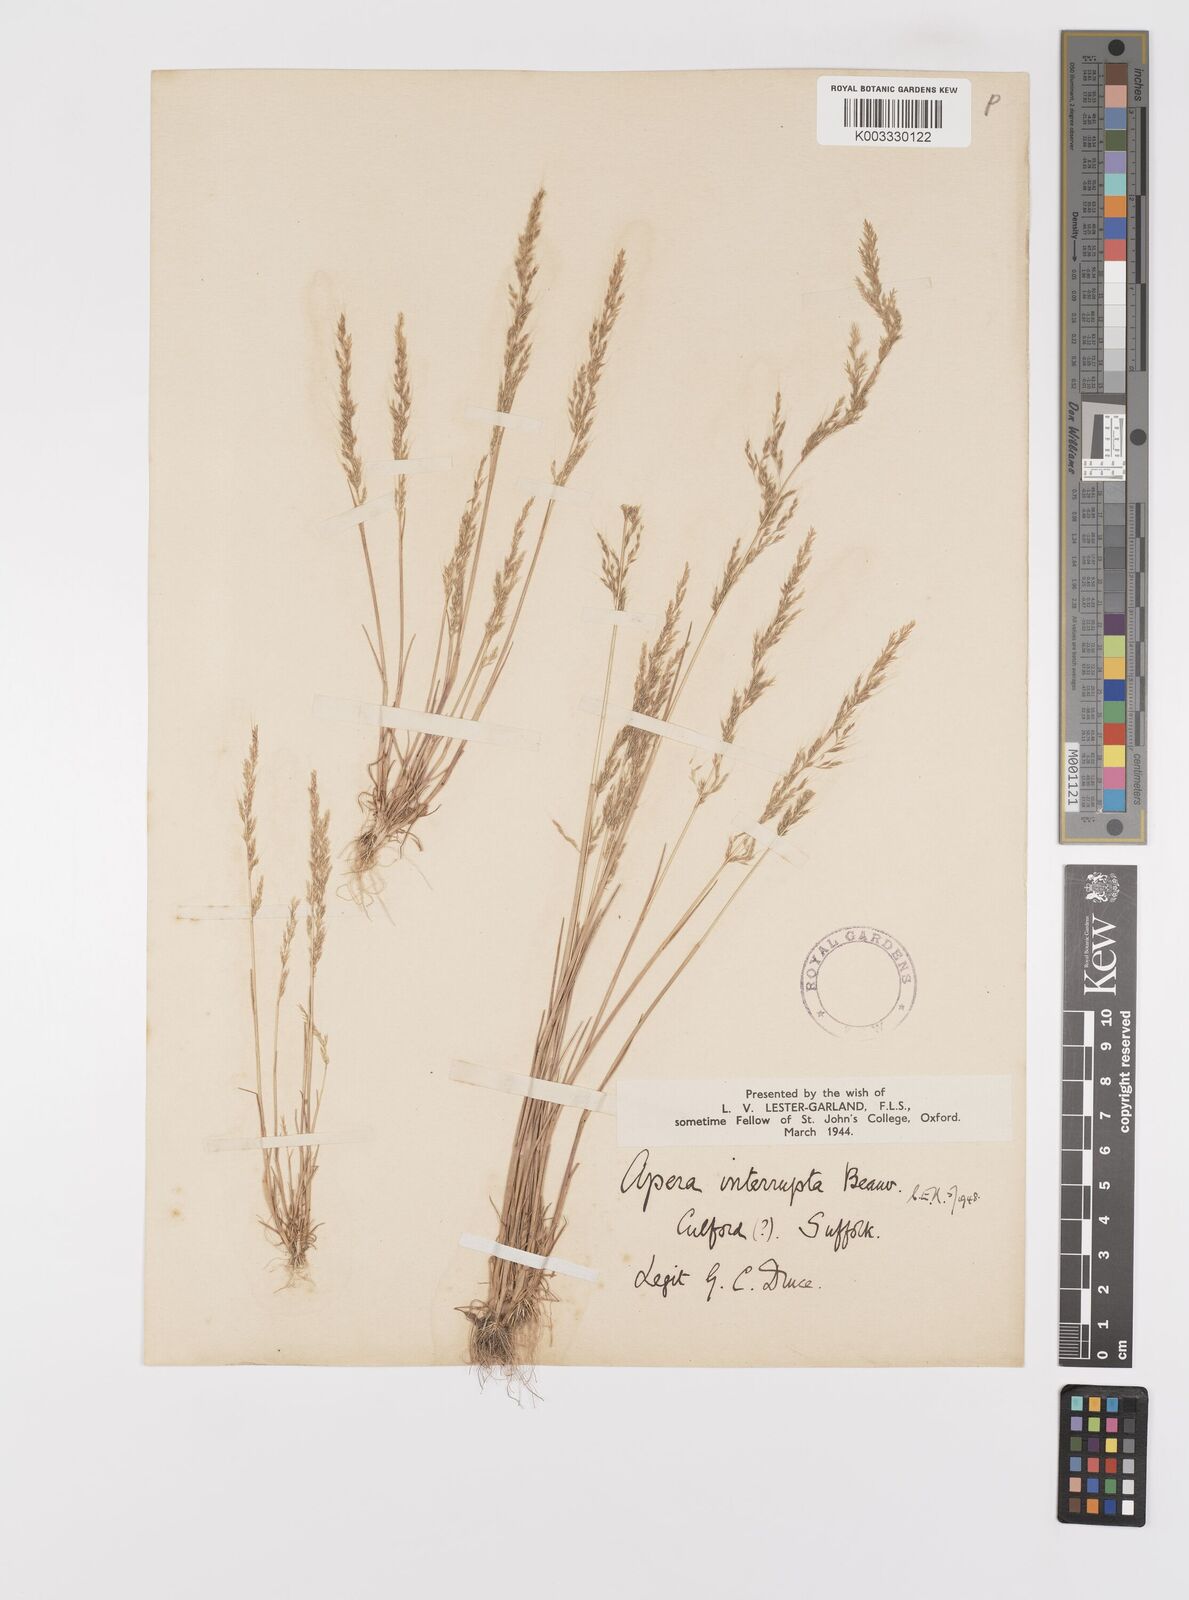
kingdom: Plantae
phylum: Tracheophyta
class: Liliopsida
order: Poales
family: Poaceae
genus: Apera
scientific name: Apera interrupta
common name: Dense silky-bent
